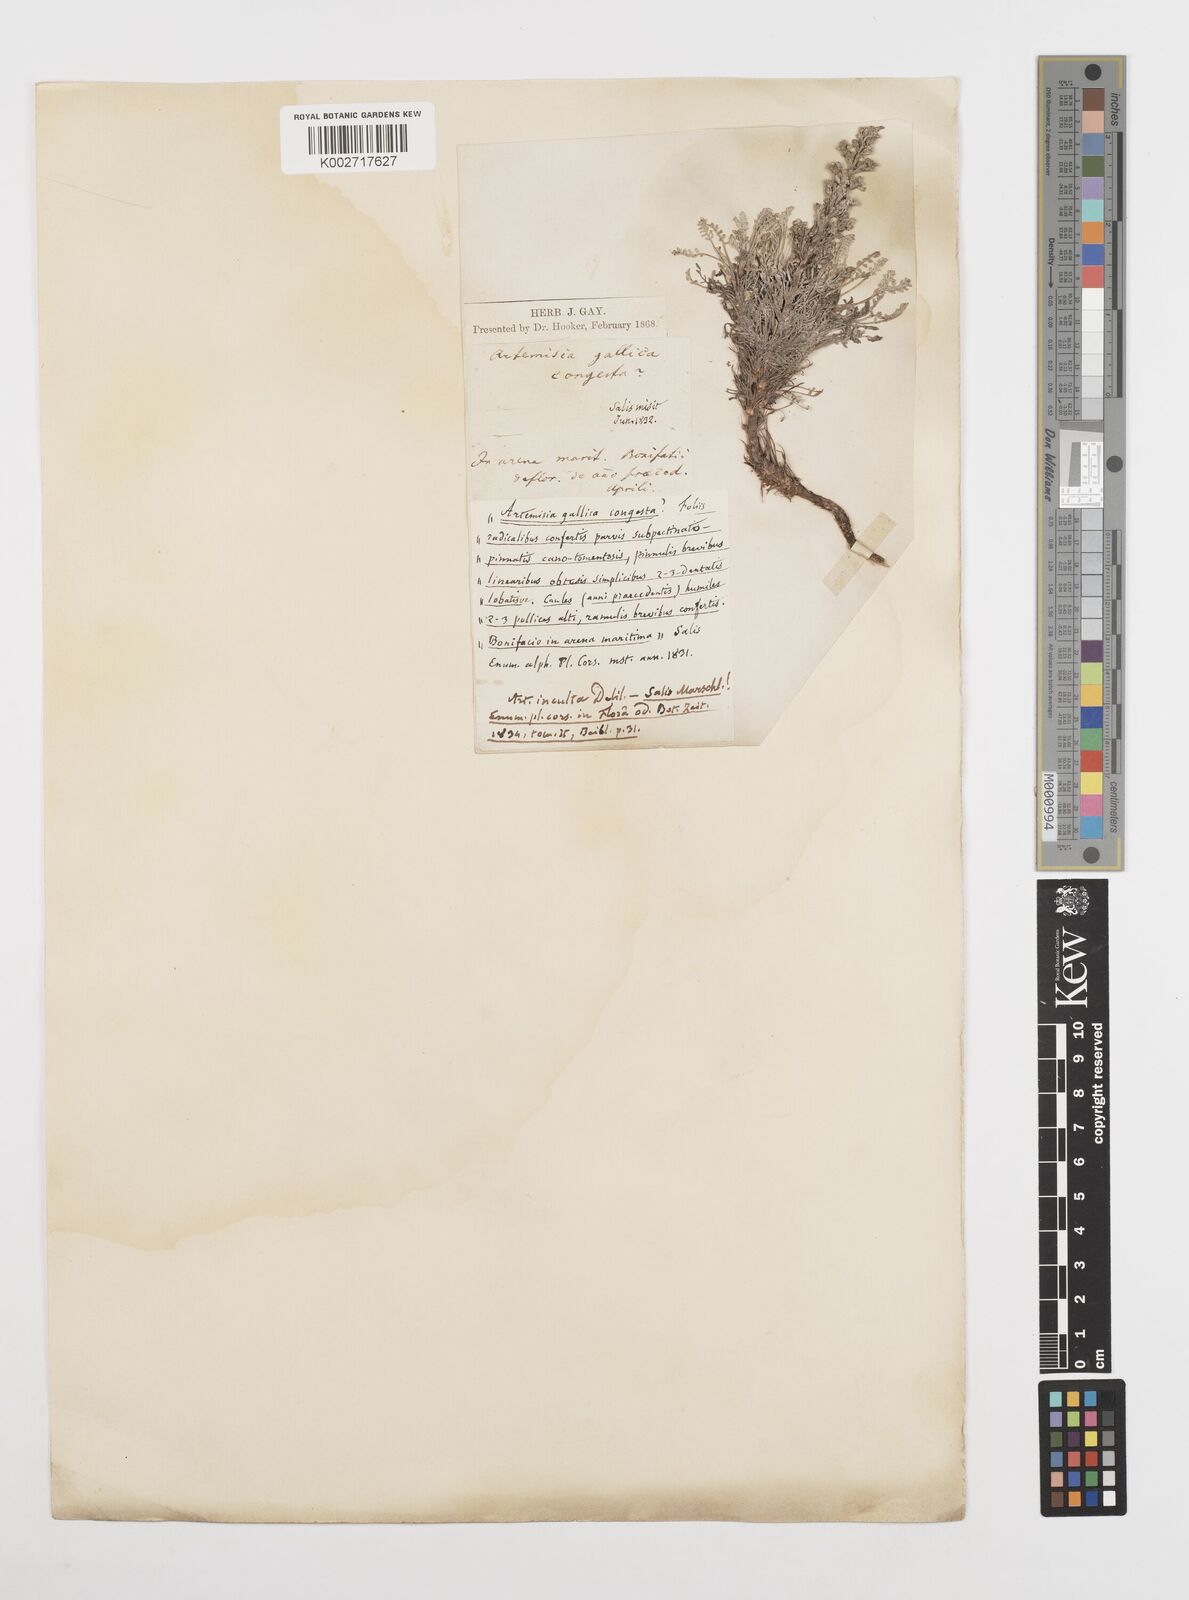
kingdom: Plantae
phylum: Tracheophyta
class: Magnoliopsida
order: Asterales
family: Asteraceae
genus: Artemisia
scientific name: Artemisia campestris
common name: Field wormwood
